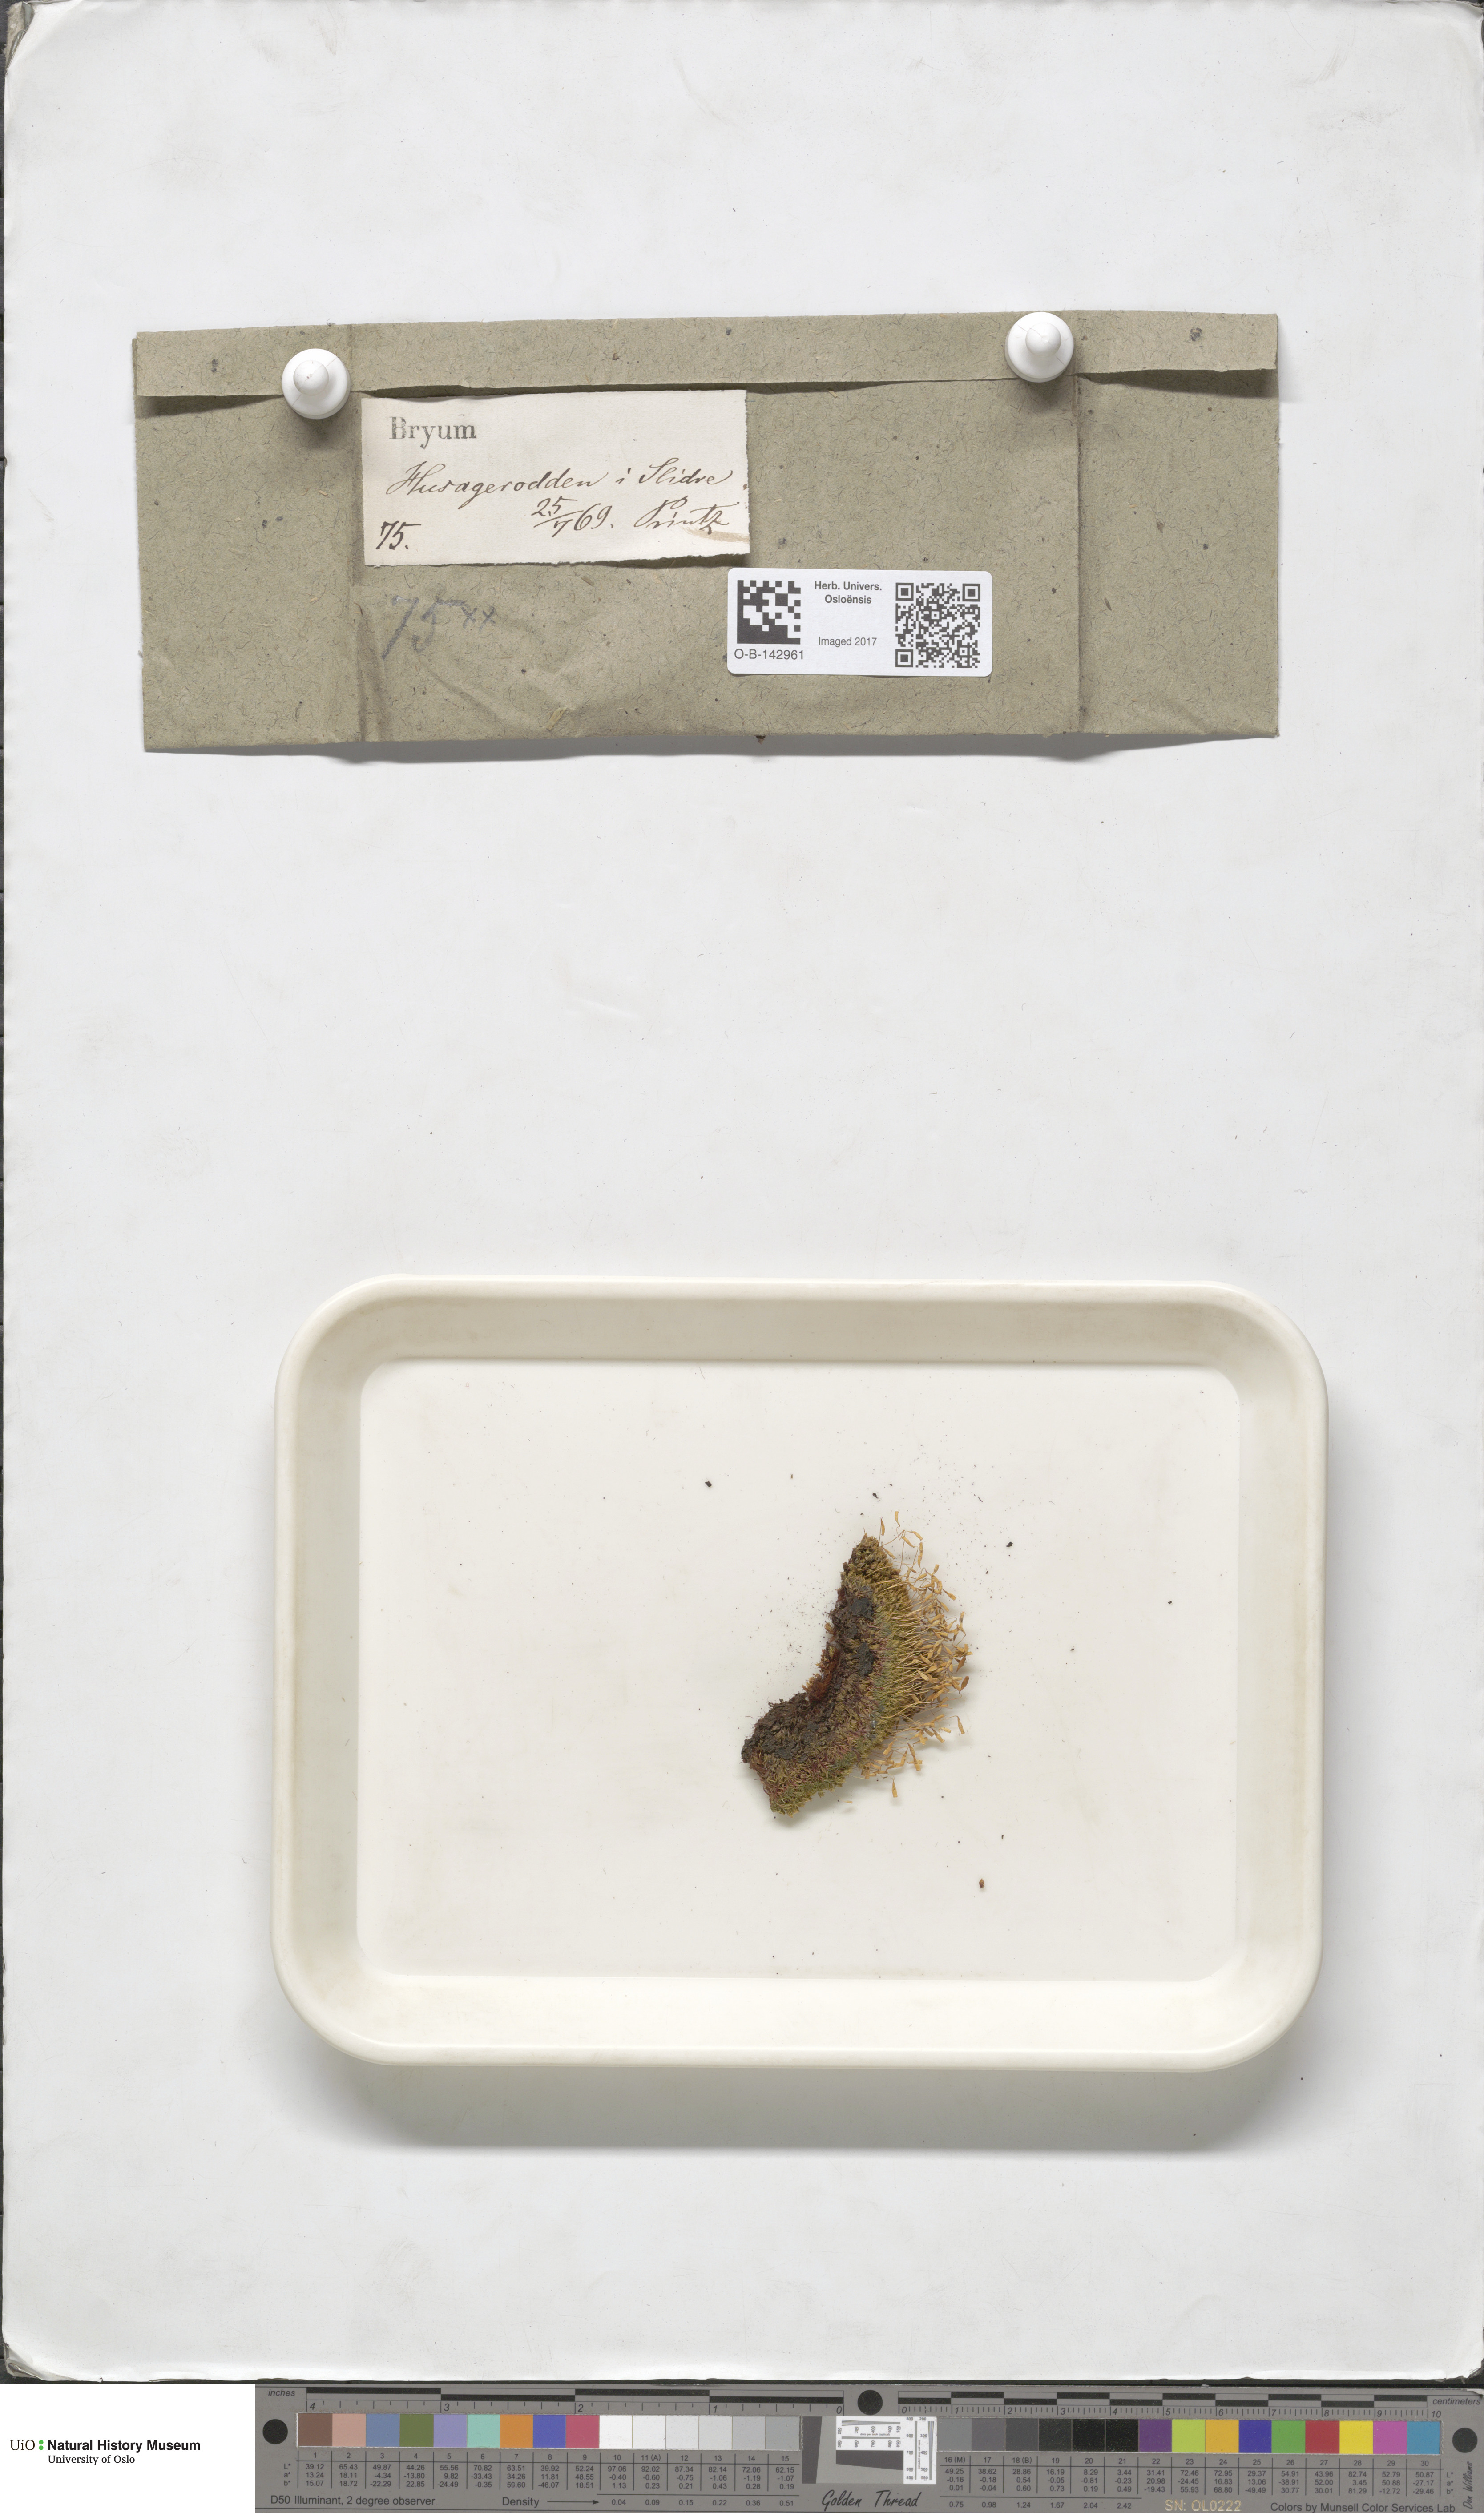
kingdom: Plantae
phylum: Bryophyta
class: Bryopsida
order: Bryales
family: Bryaceae
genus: Bryum
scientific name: Bryum
